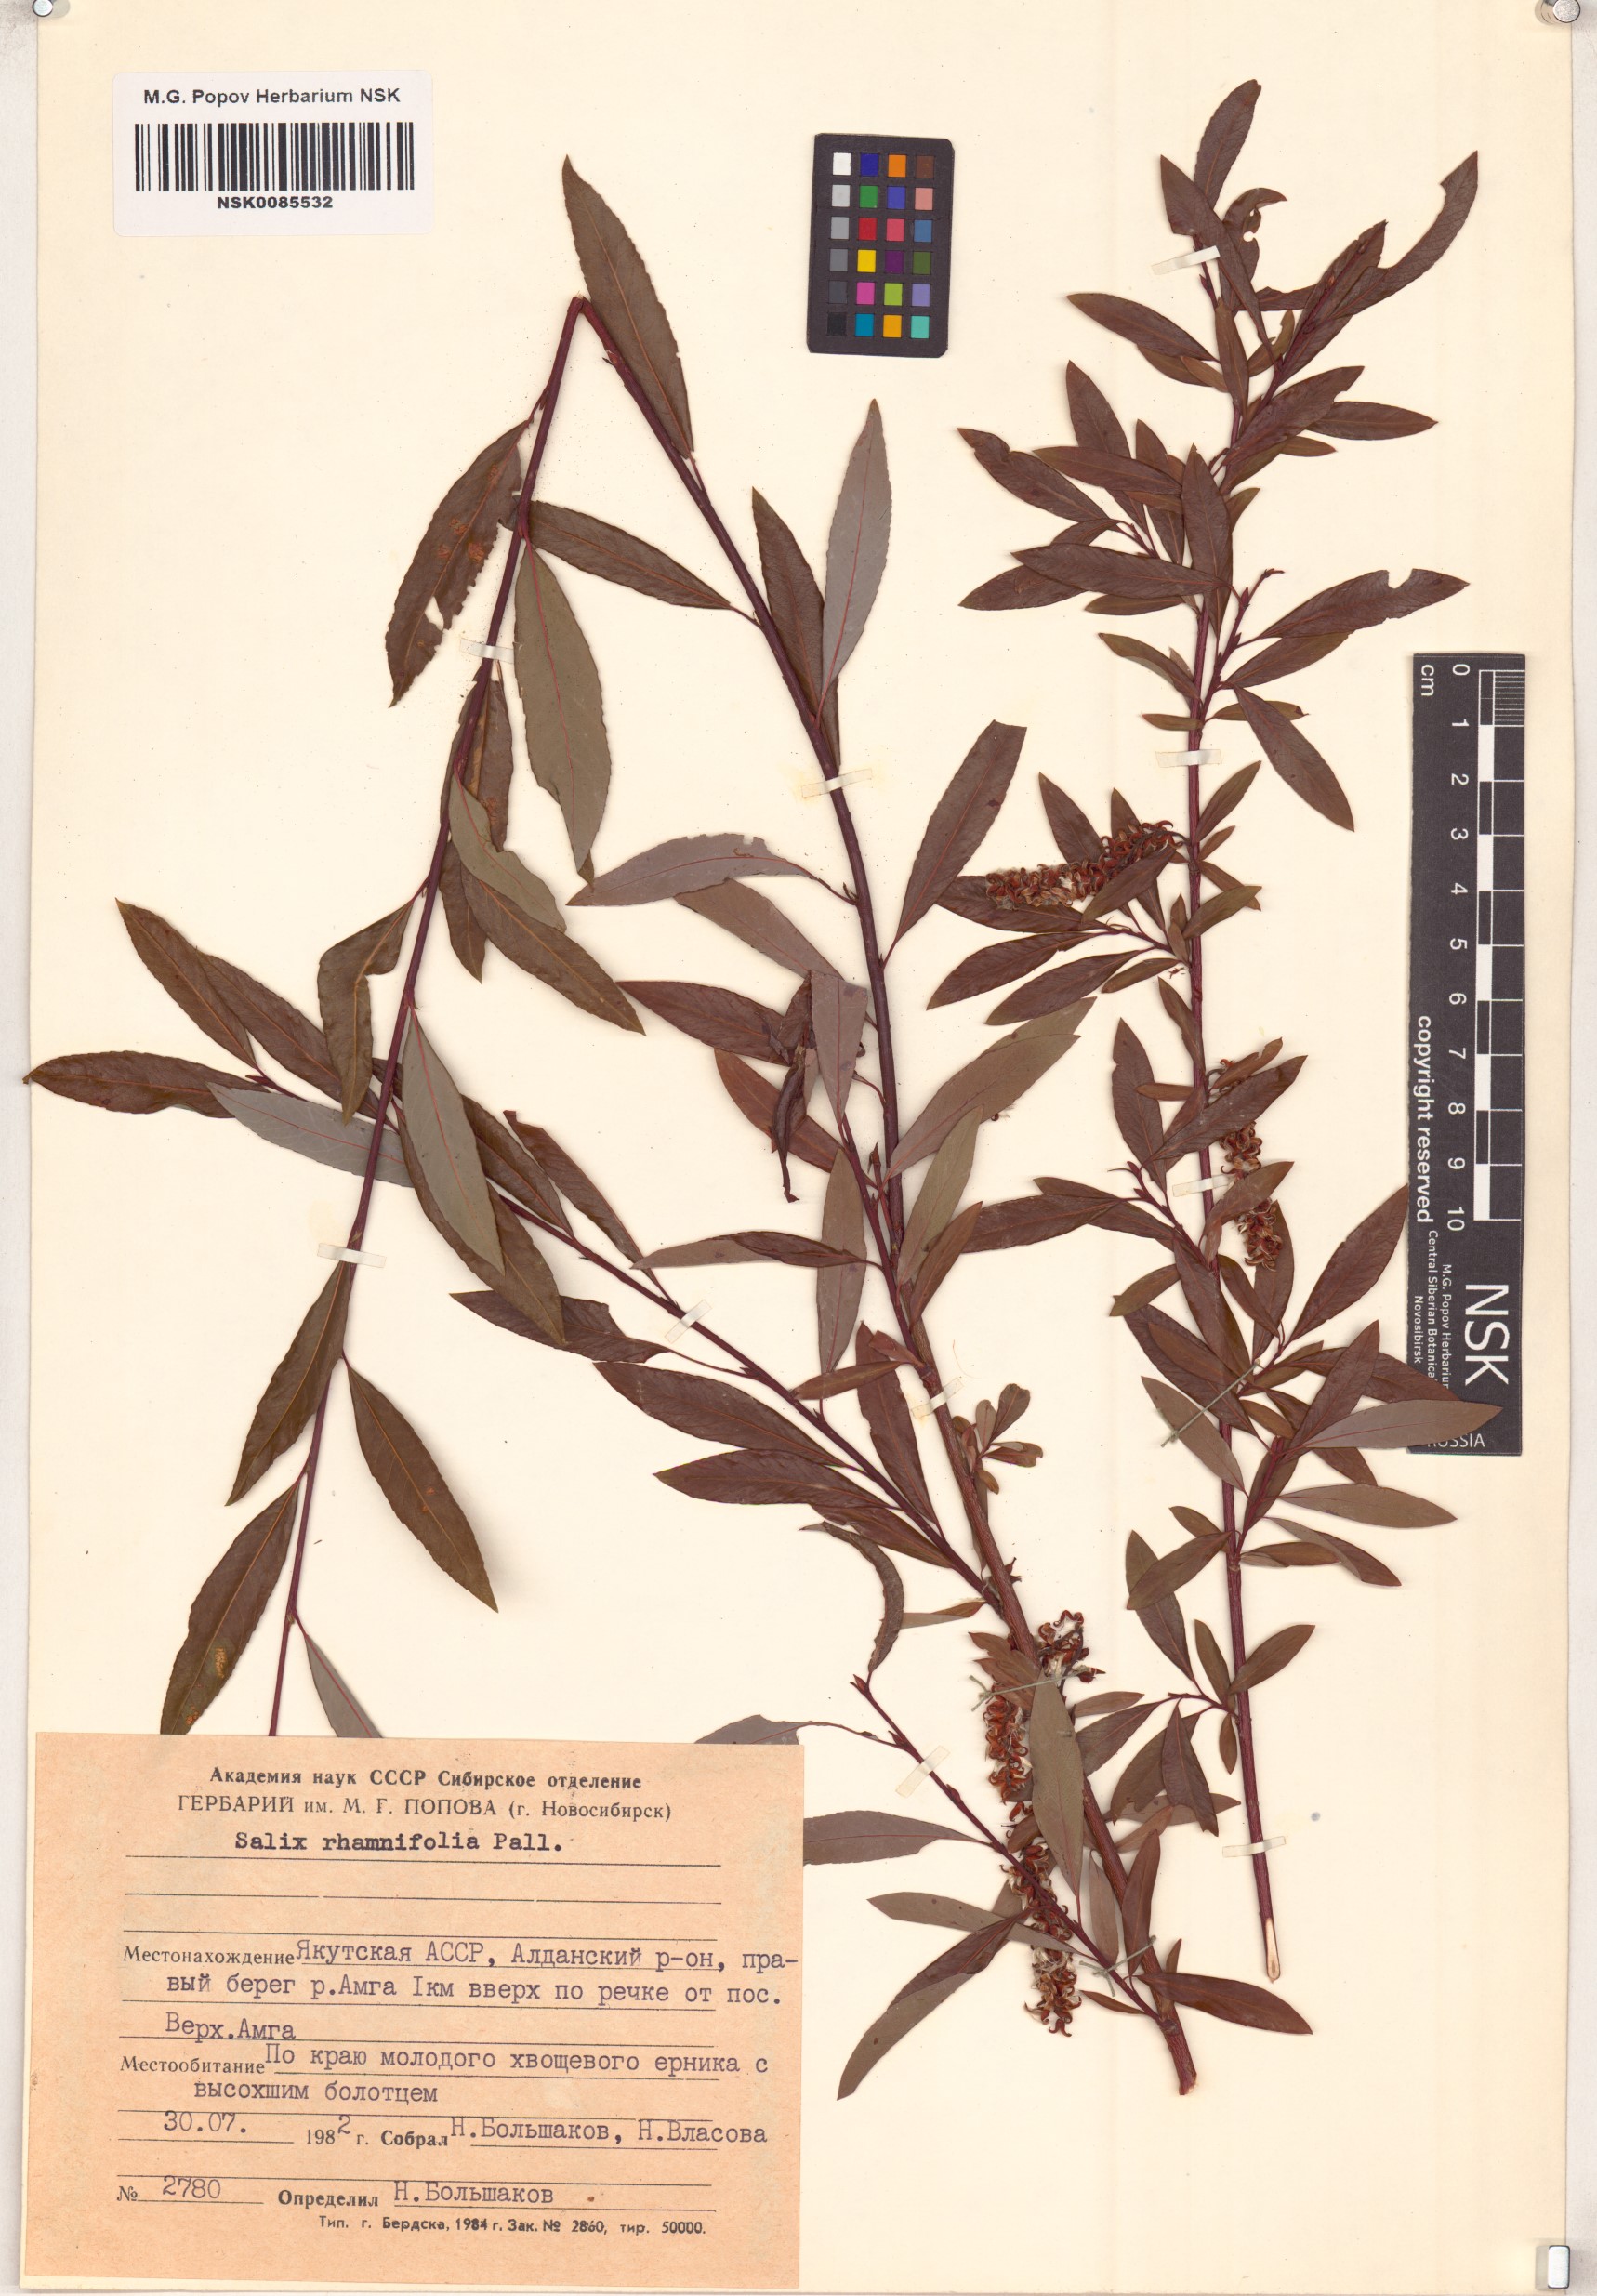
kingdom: Plantae
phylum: Tracheophyta
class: Magnoliopsida
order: Malpighiales
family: Salicaceae
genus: Salix
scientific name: Salix rhamnifolia
